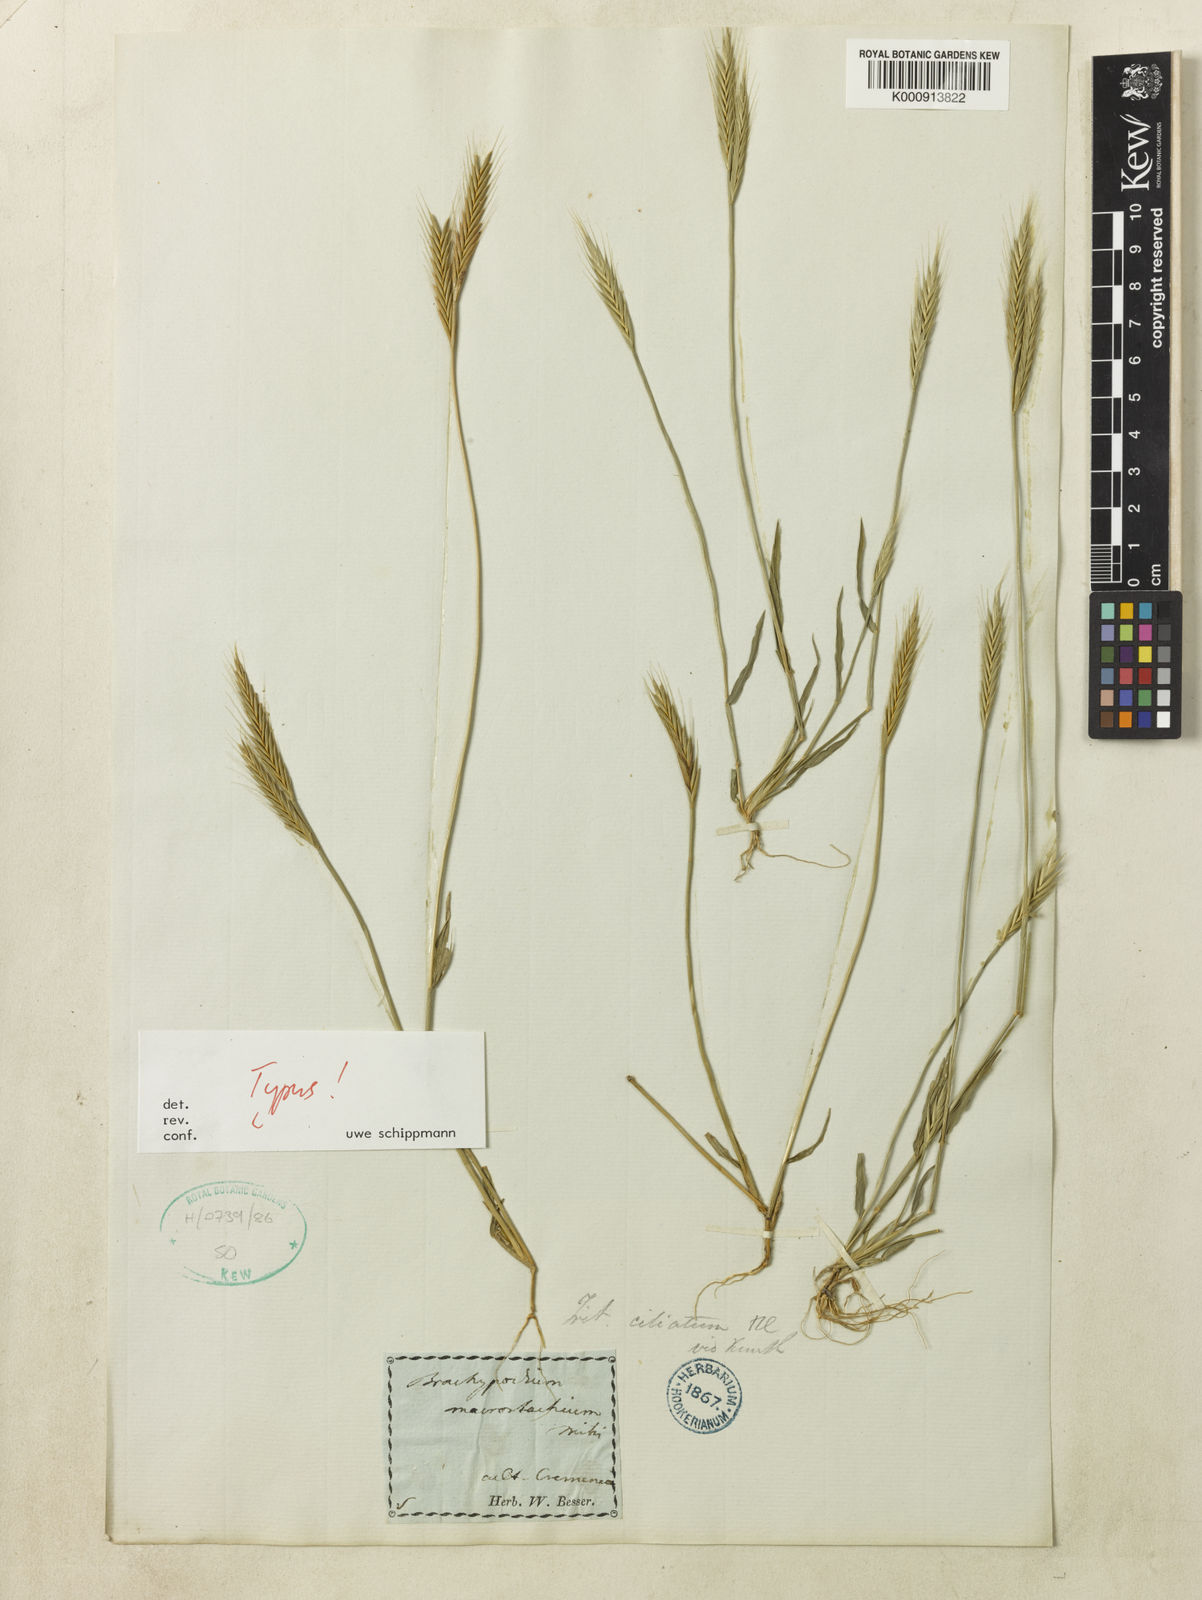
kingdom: Plantae
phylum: Tracheophyta
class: Liliopsida
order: Poales
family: Poaceae
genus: Brachypodium
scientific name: Brachypodium distachyon
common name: Stiff brome
